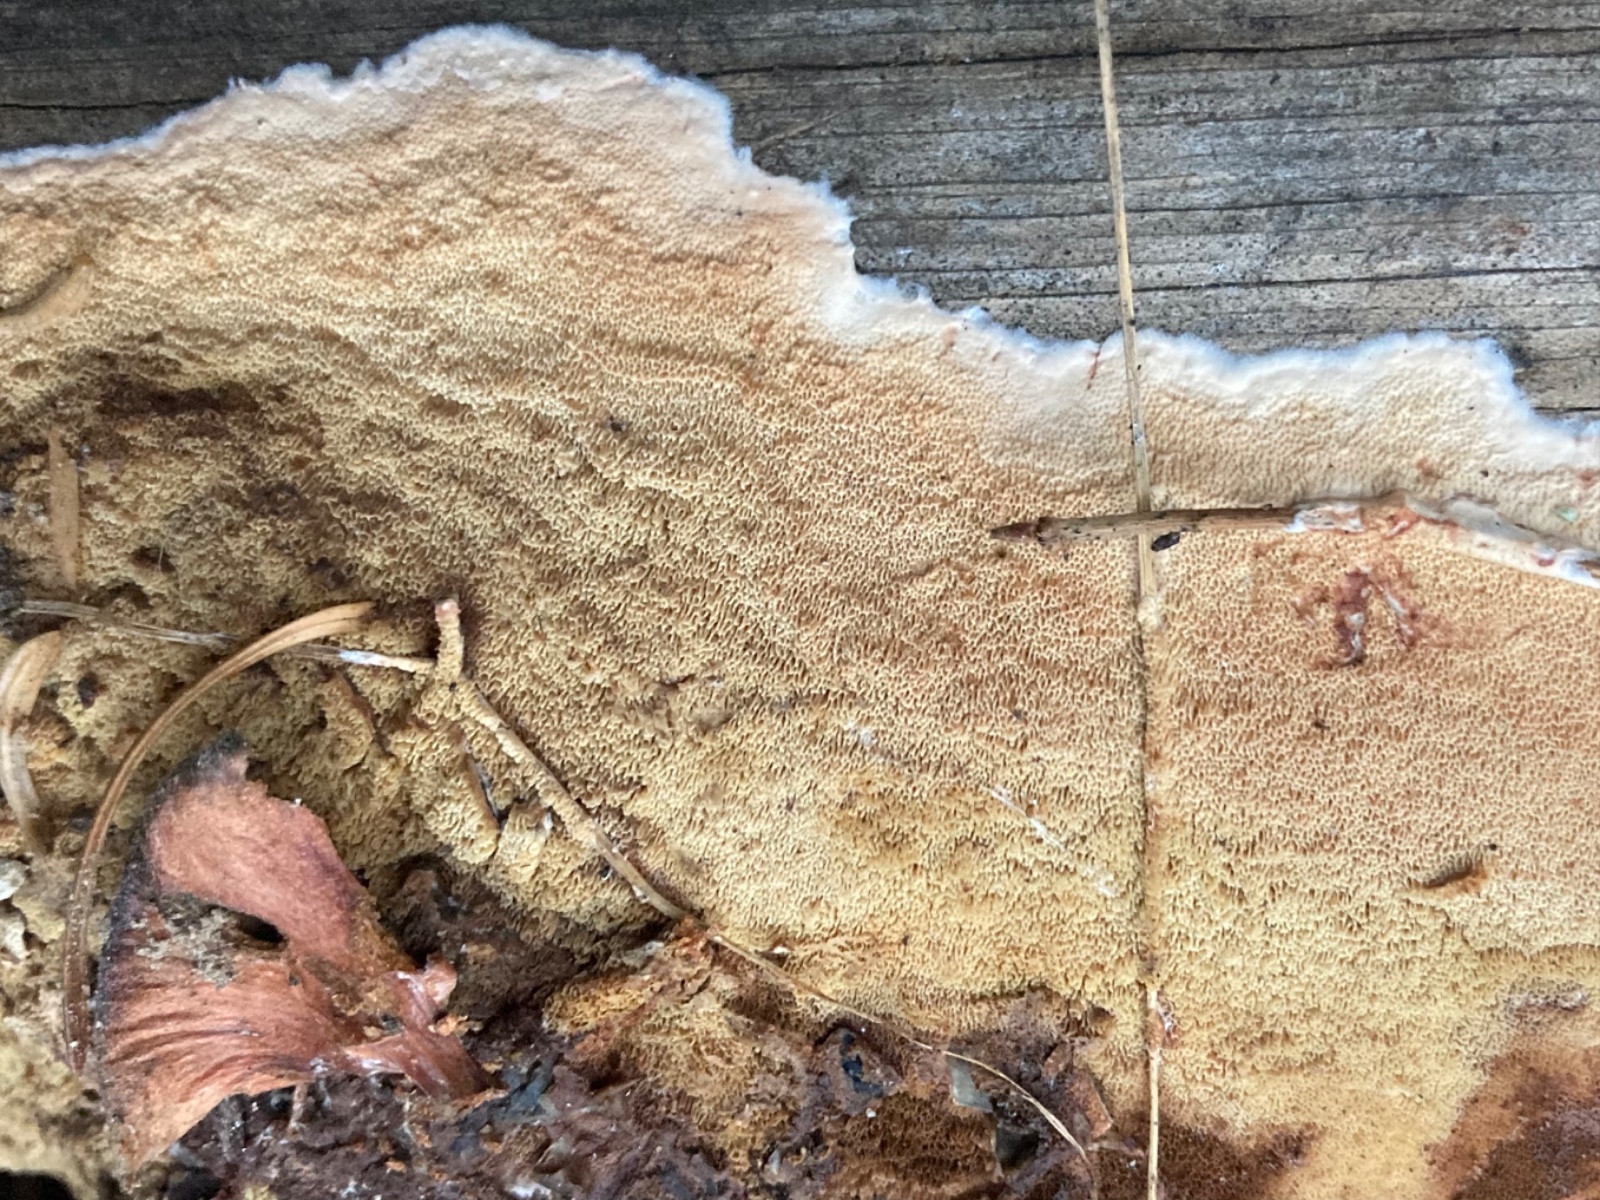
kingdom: Fungi
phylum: Basidiomycota
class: Agaricomycetes
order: Polyporales
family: Irpicaceae
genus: Meruliopsis
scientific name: Meruliopsis taxicola
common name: purpurbrun foldporesvamp
